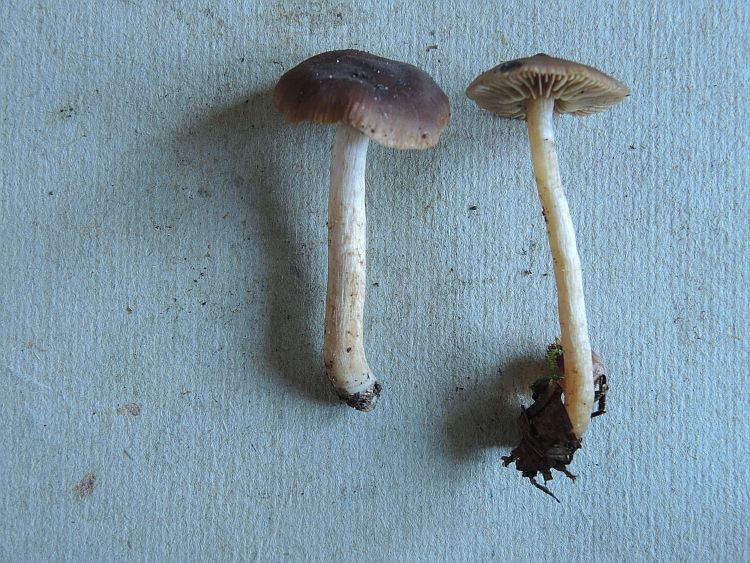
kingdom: Fungi
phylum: Basidiomycota
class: Agaricomycetes
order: Agaricales
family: Cortinariaceae
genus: Cortinarius
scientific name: Cortinarius
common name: ræve-slørhat
